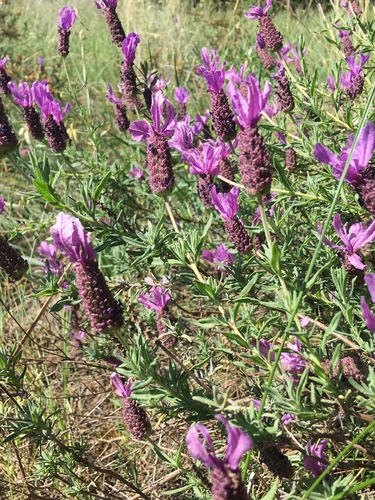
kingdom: Plantae
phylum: Tracheophyta
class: Magnoliopsida
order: Lamiales
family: Lamiaceae
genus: Lavandula
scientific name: Lavandula stoechas
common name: French lavender
